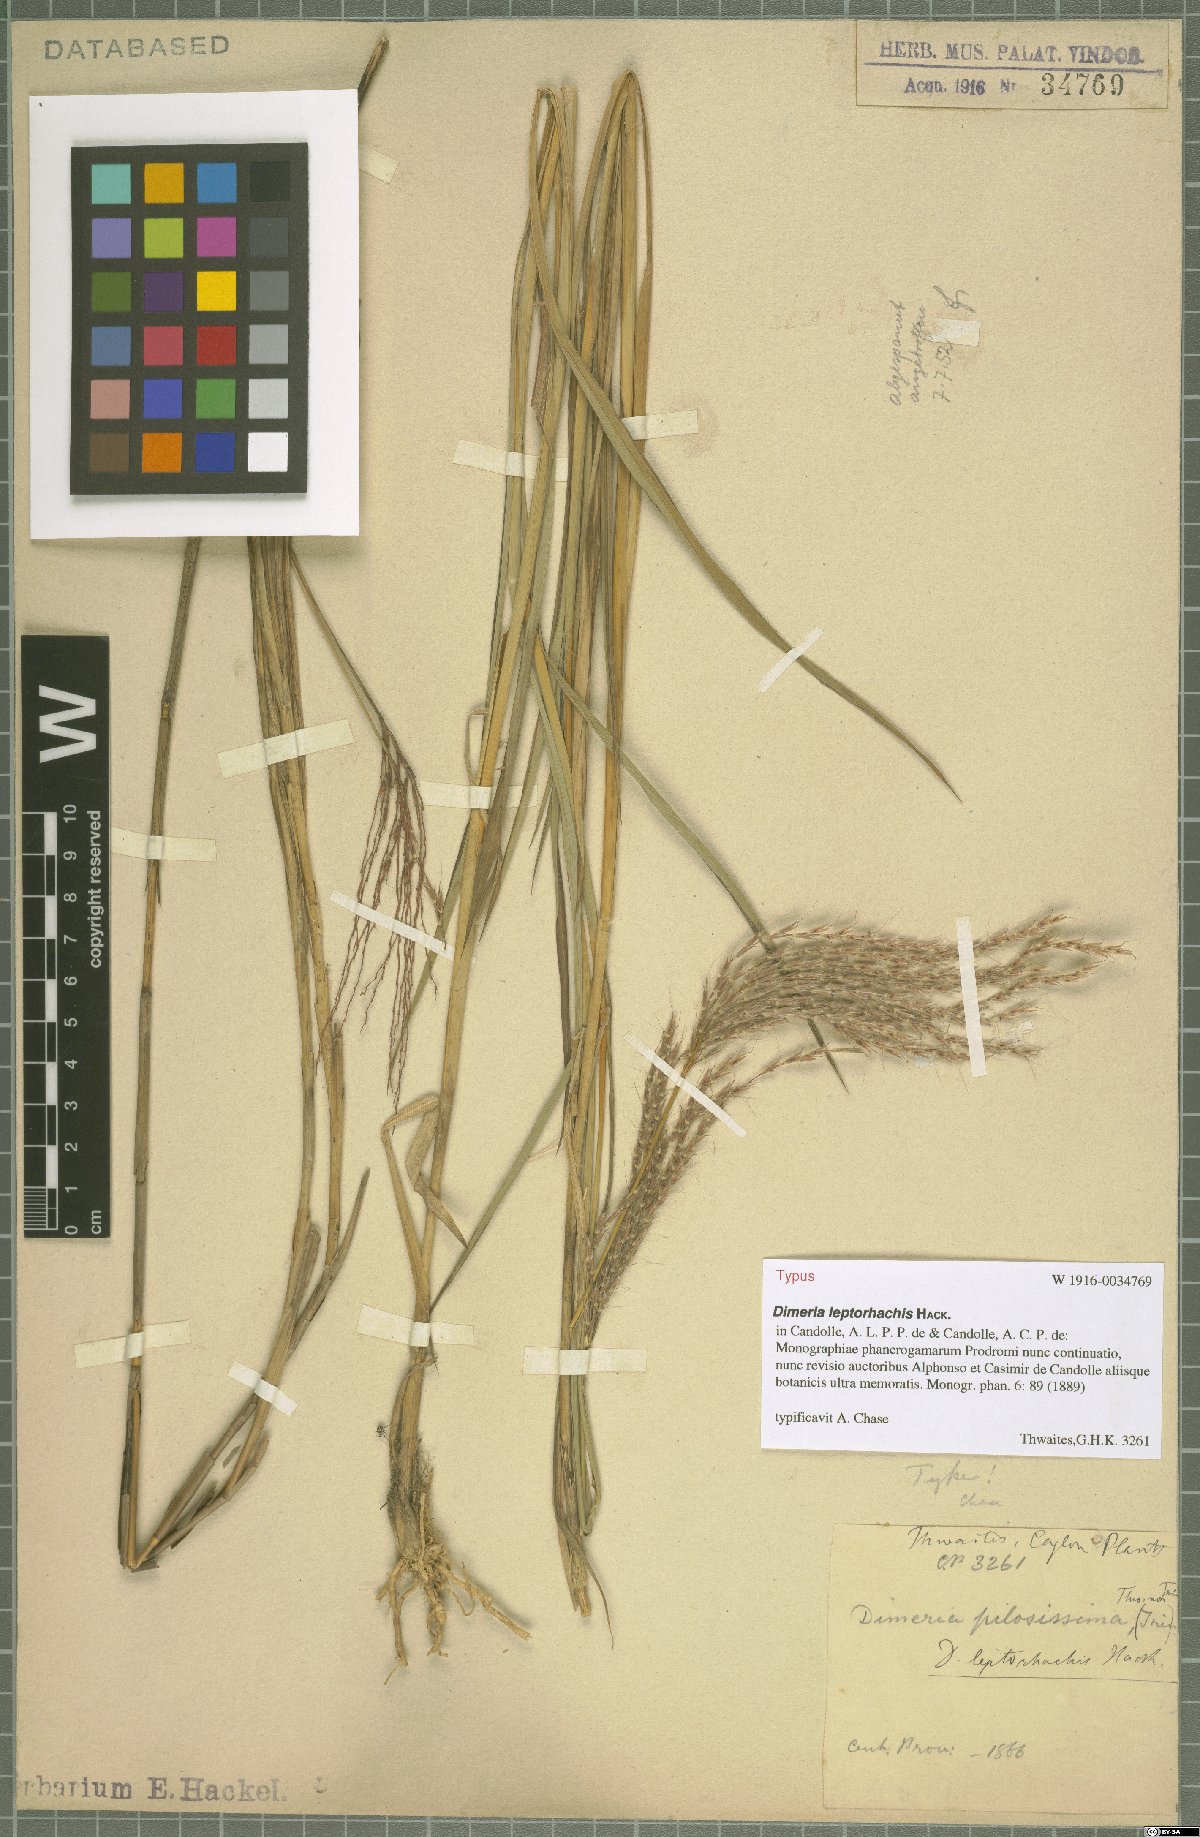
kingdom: Plantae
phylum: Tracheophyta
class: Liliopsida
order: Poales
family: Poaceae
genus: Dimeria
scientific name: Dimeria gracilis
